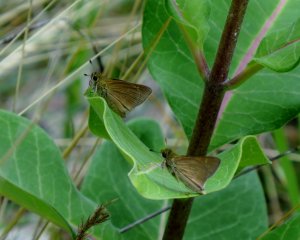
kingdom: Animalia
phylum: Arthropoda
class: Insecta
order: Lepidoptera
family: Hesperiidae
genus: Polites
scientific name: Polites
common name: Crossline Skipper
